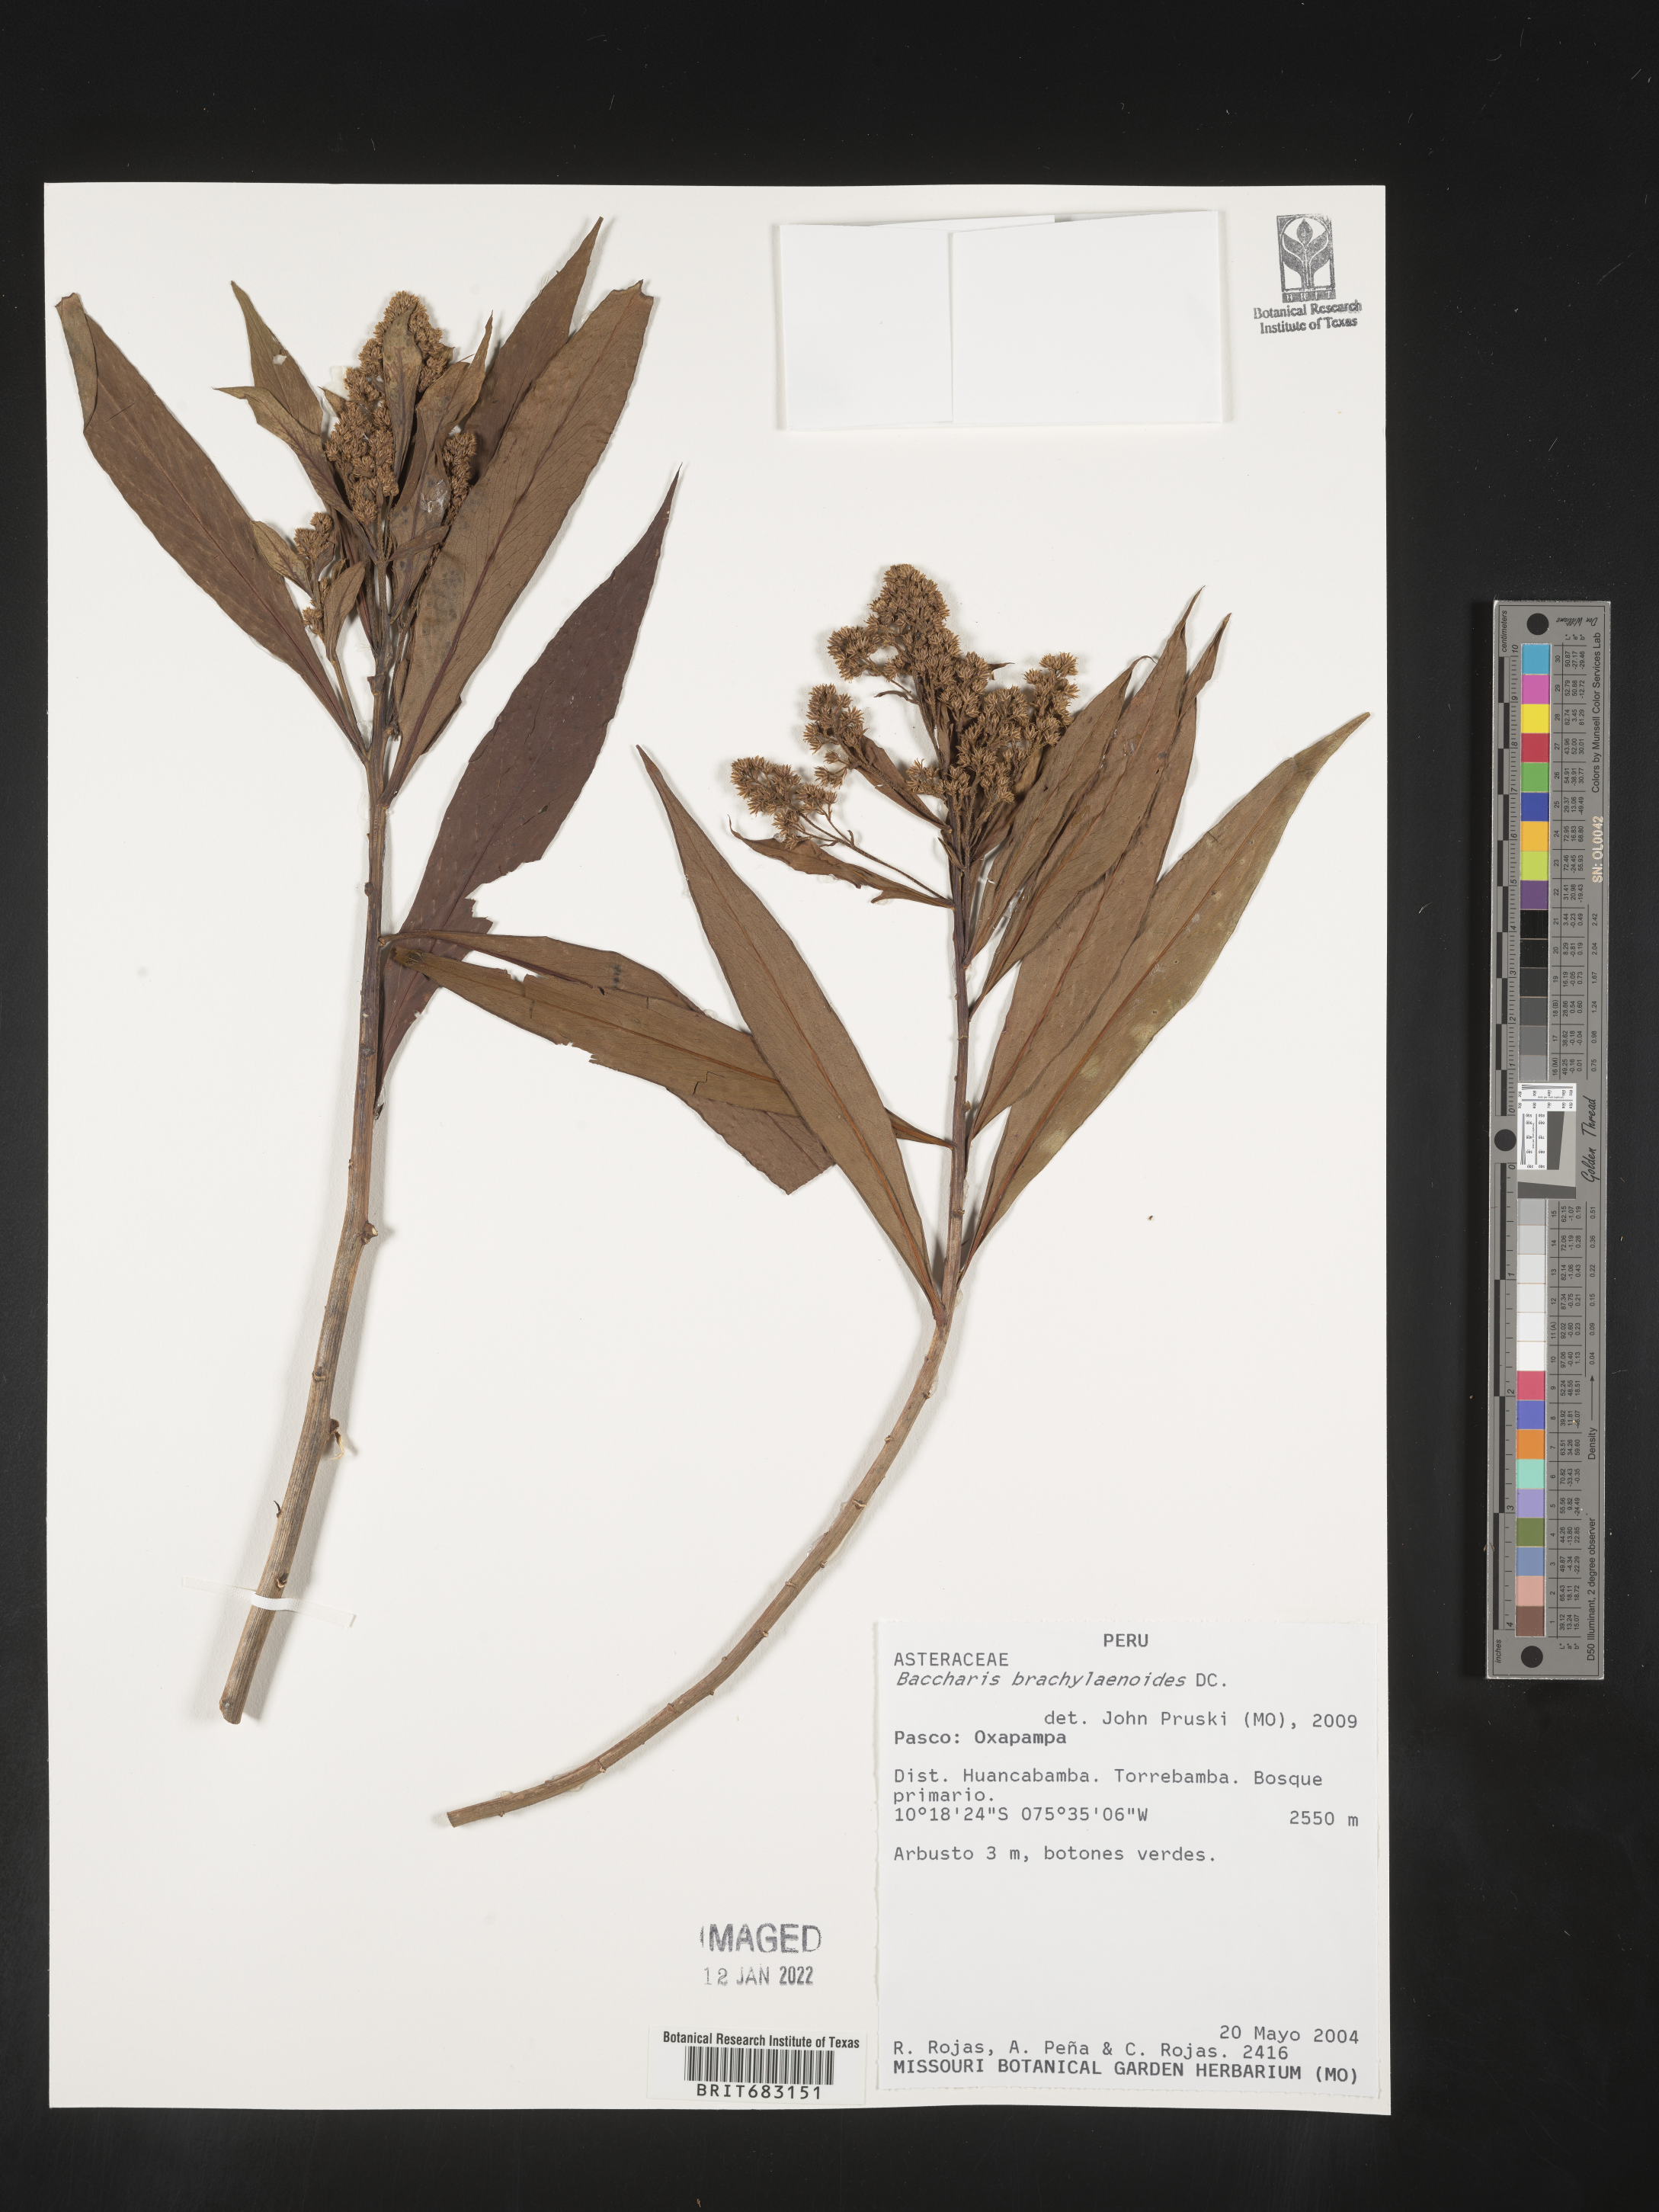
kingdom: Plantae
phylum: Tracheophyta
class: Magnoliopsida
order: Asterales
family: Asteraceae
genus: Baccharis
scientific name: Baccharis
